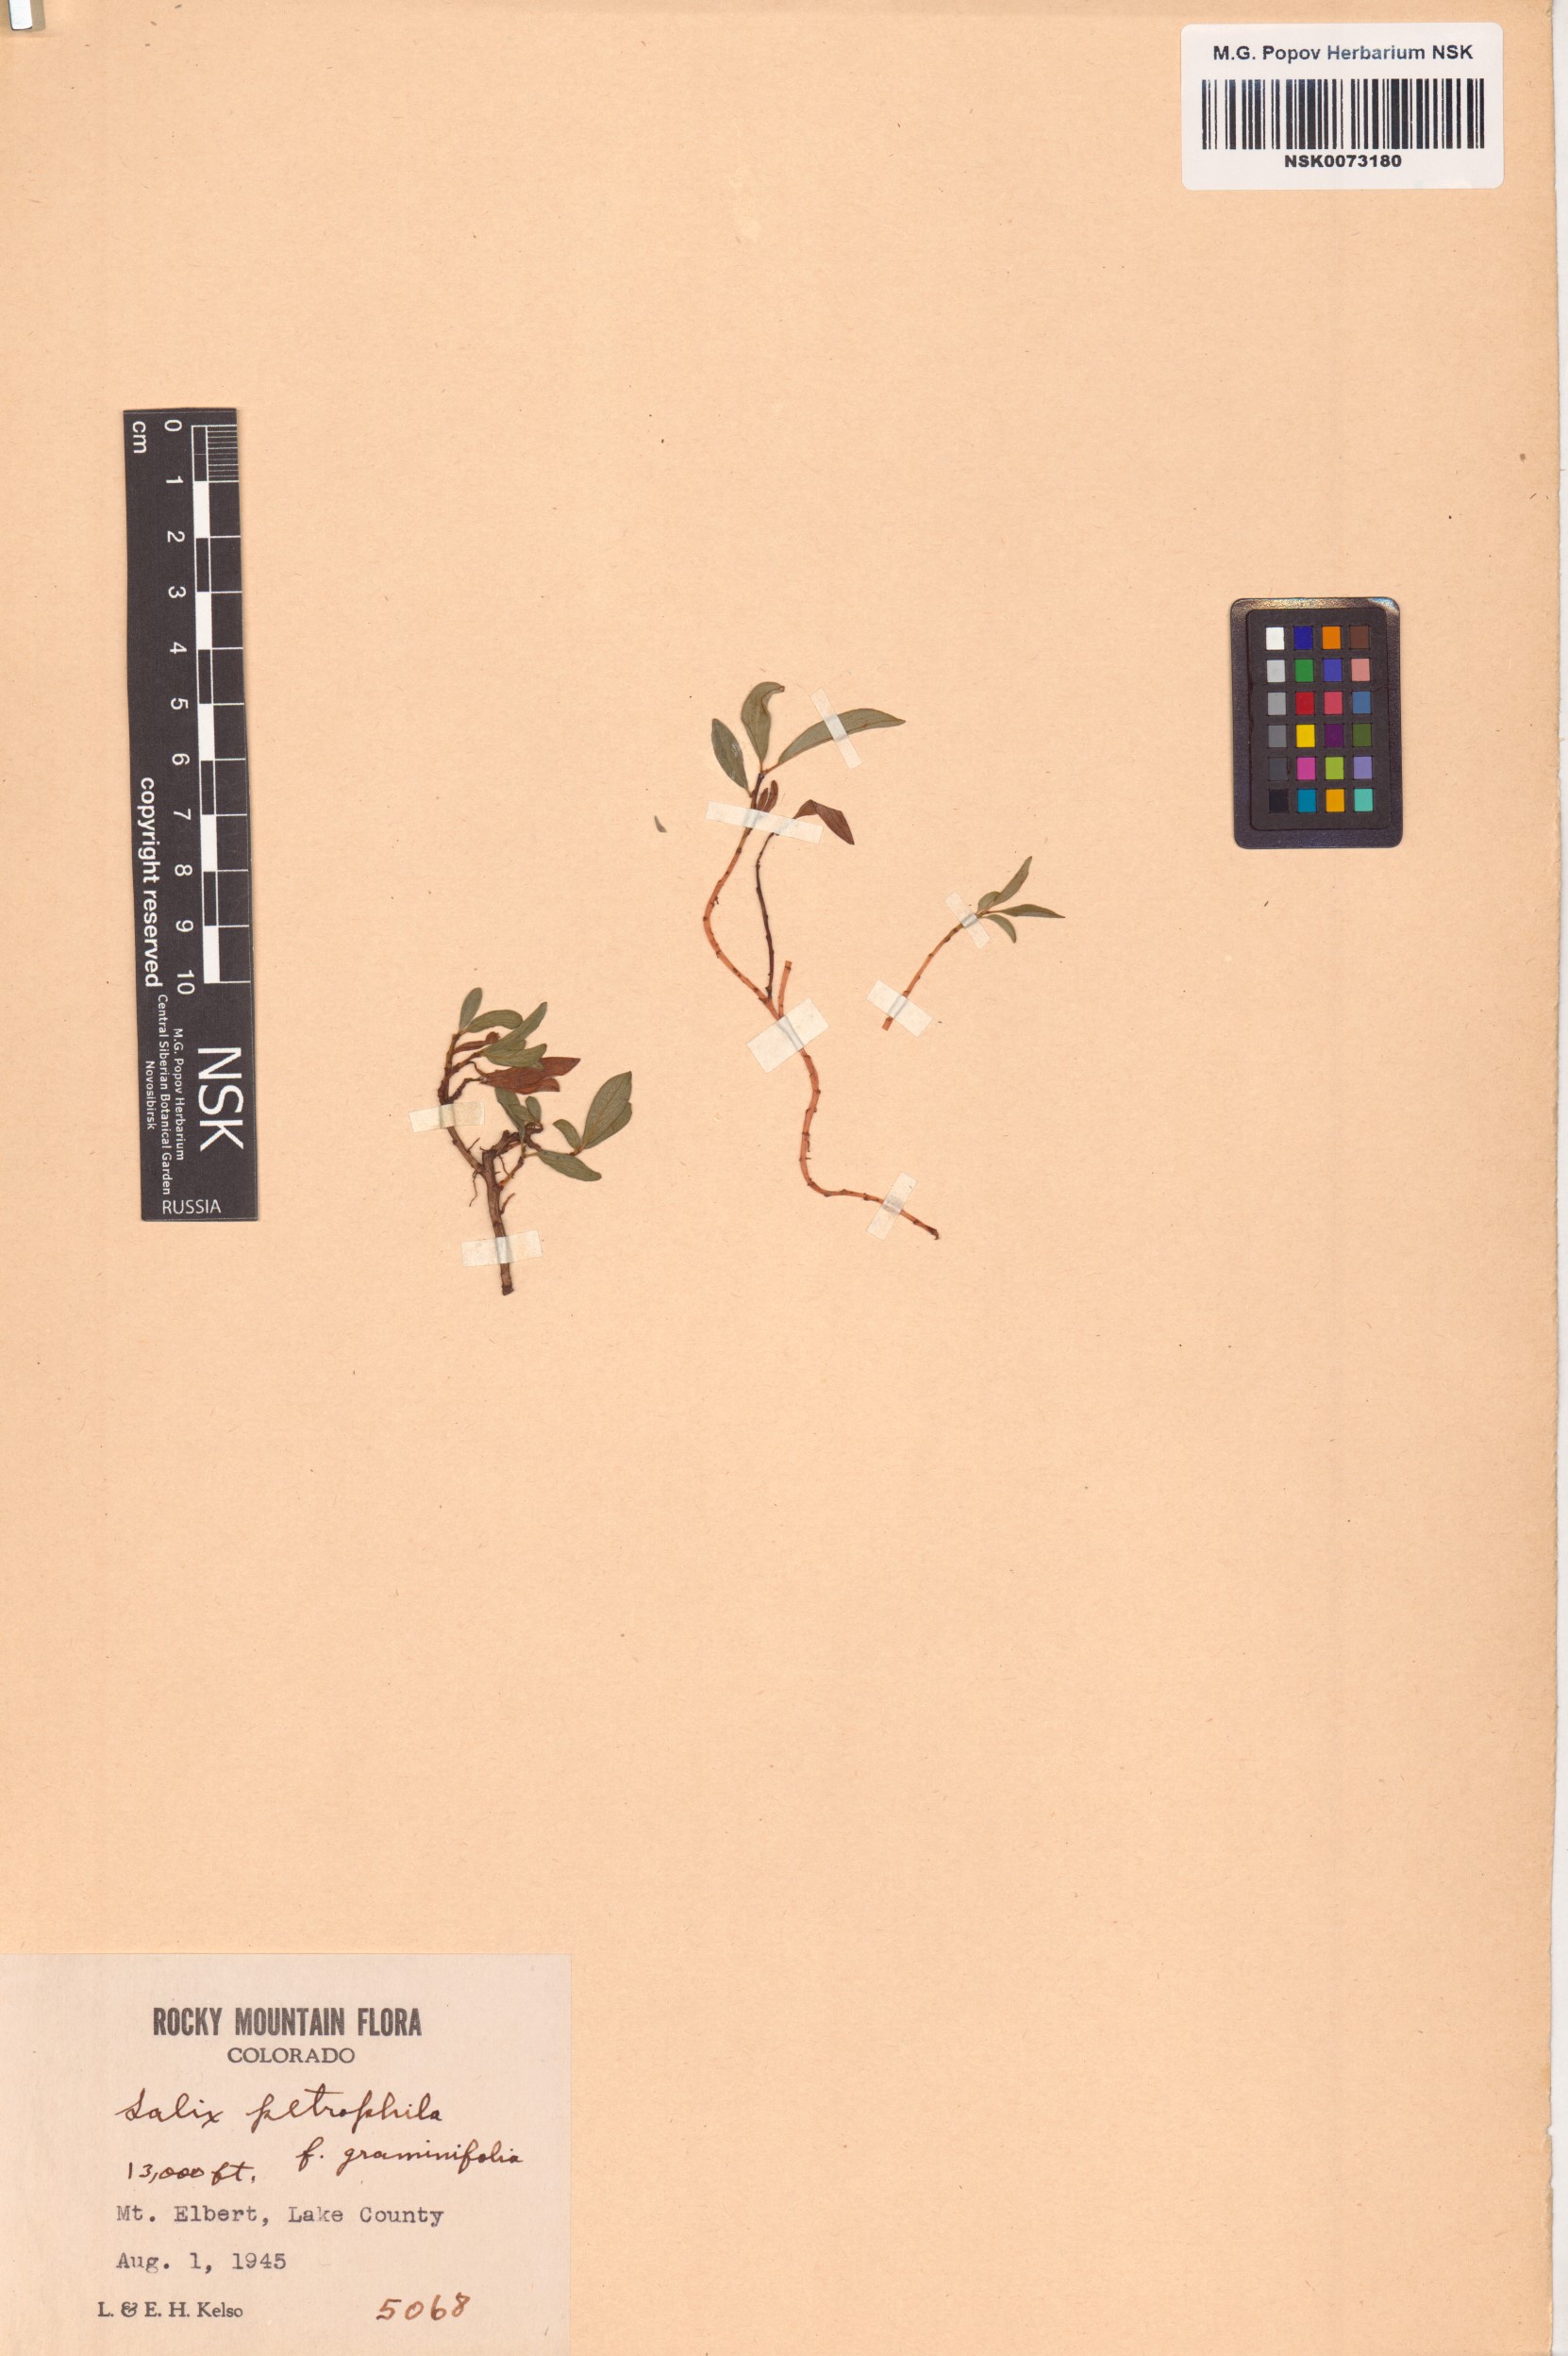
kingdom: Plantae
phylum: Tracheophyta
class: Magnoliopsida
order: Malpighiales
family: Salicaceae
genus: Salix
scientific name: Salix petrophila
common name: Rocky mountain willow
